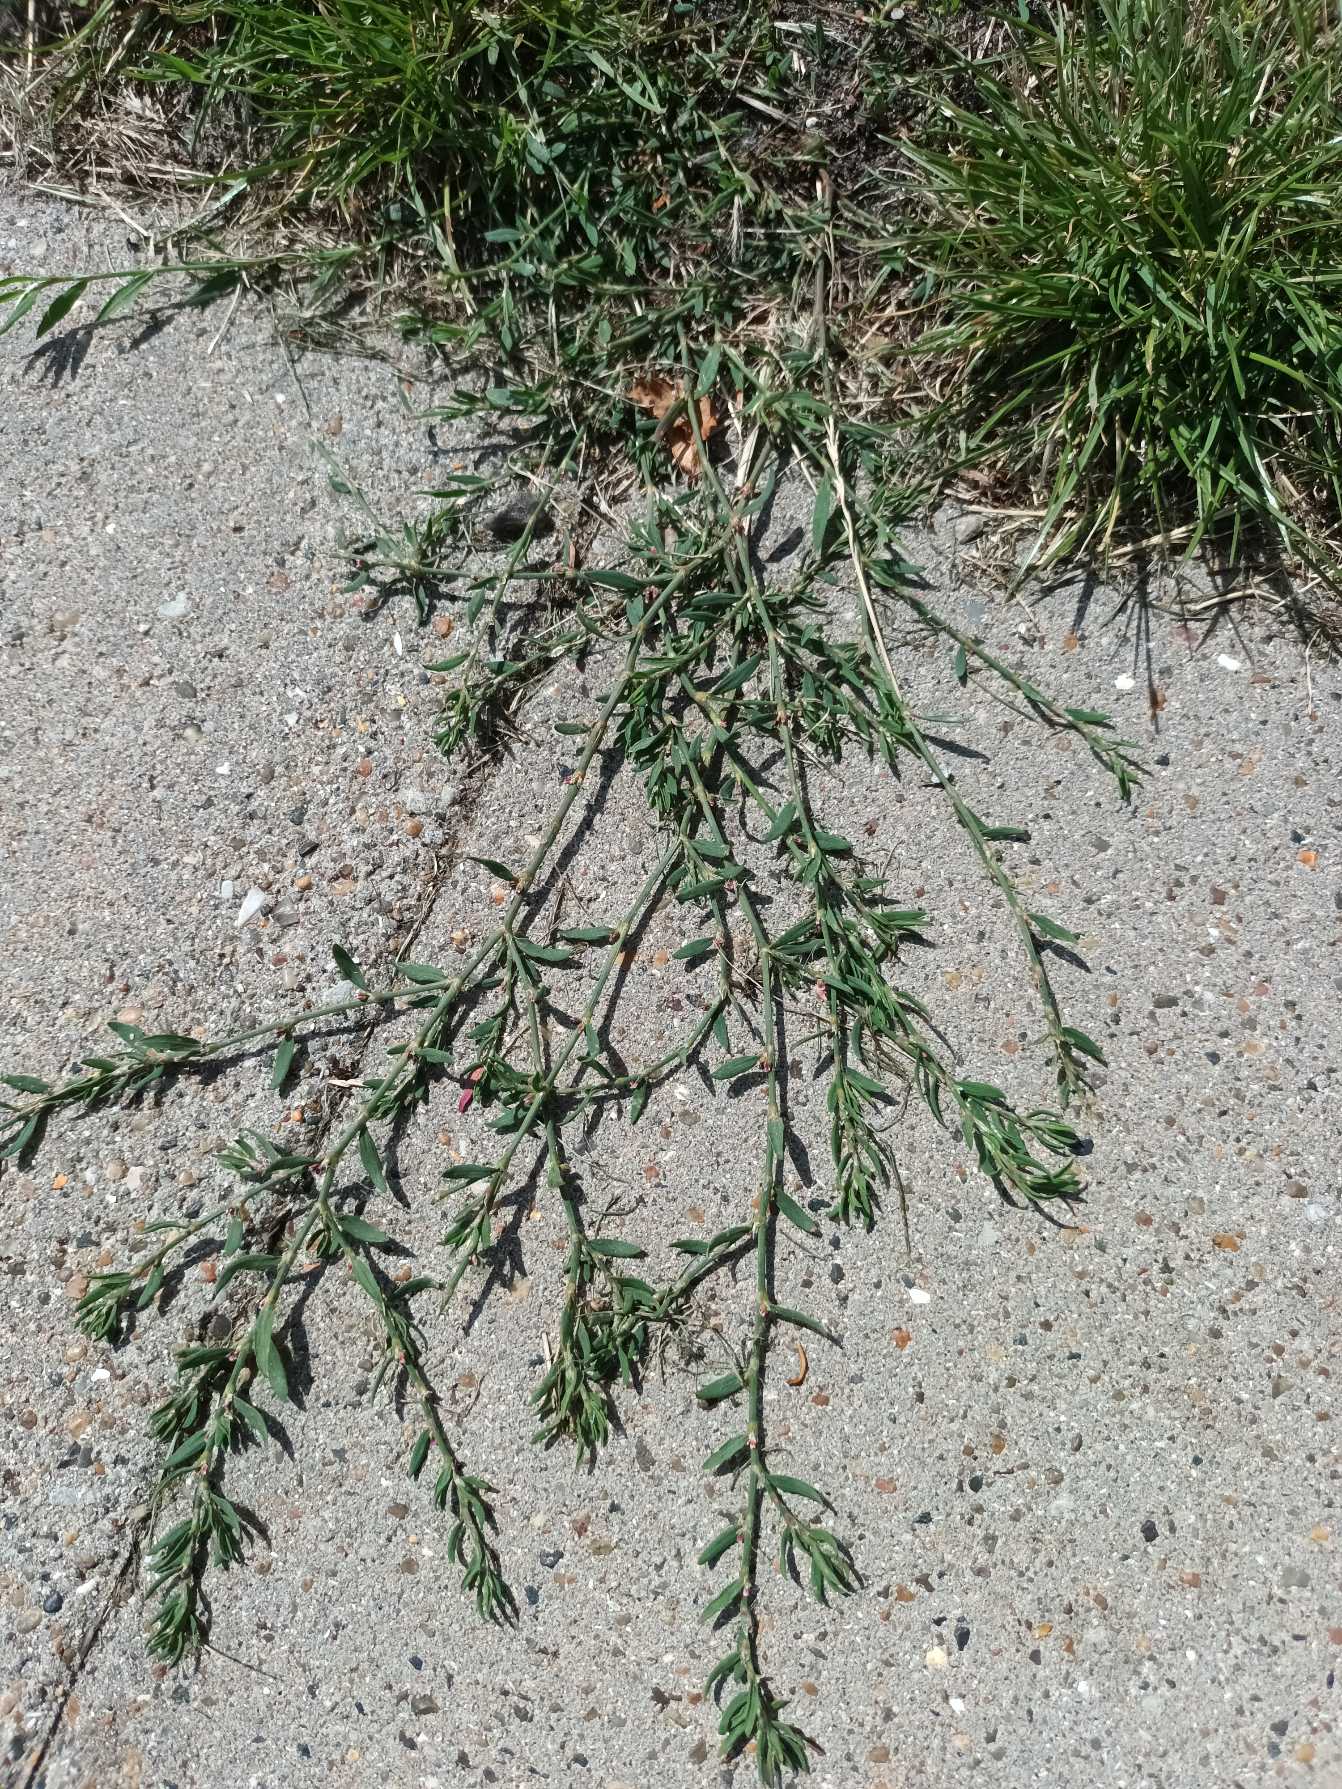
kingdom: Plantae
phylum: Tracheophyta
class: Magnoliopsida
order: Caryophyllales
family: Polygonaceae
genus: Polygonum
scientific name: Polygonum arenastrum
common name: Liggende vej-pileurt
